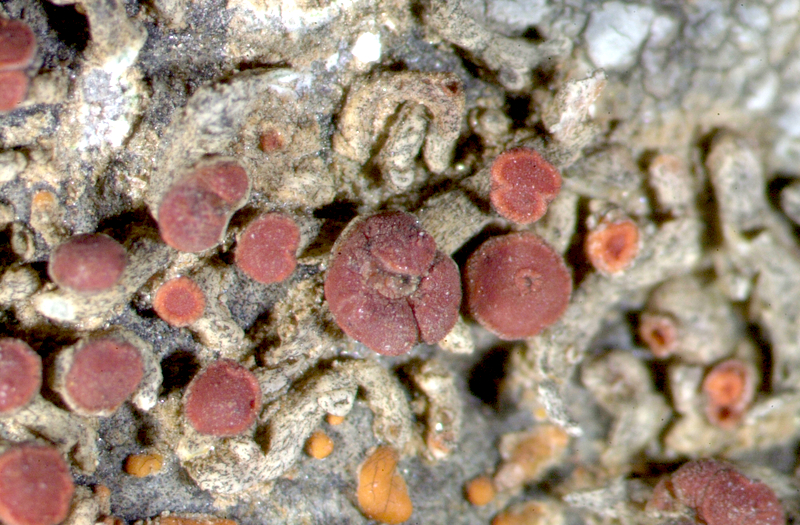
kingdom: Fungi
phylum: Ascomycota
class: Lecanoromycetes
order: Caliciales
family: Caliciaceae
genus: Buellia
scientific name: Buellia
